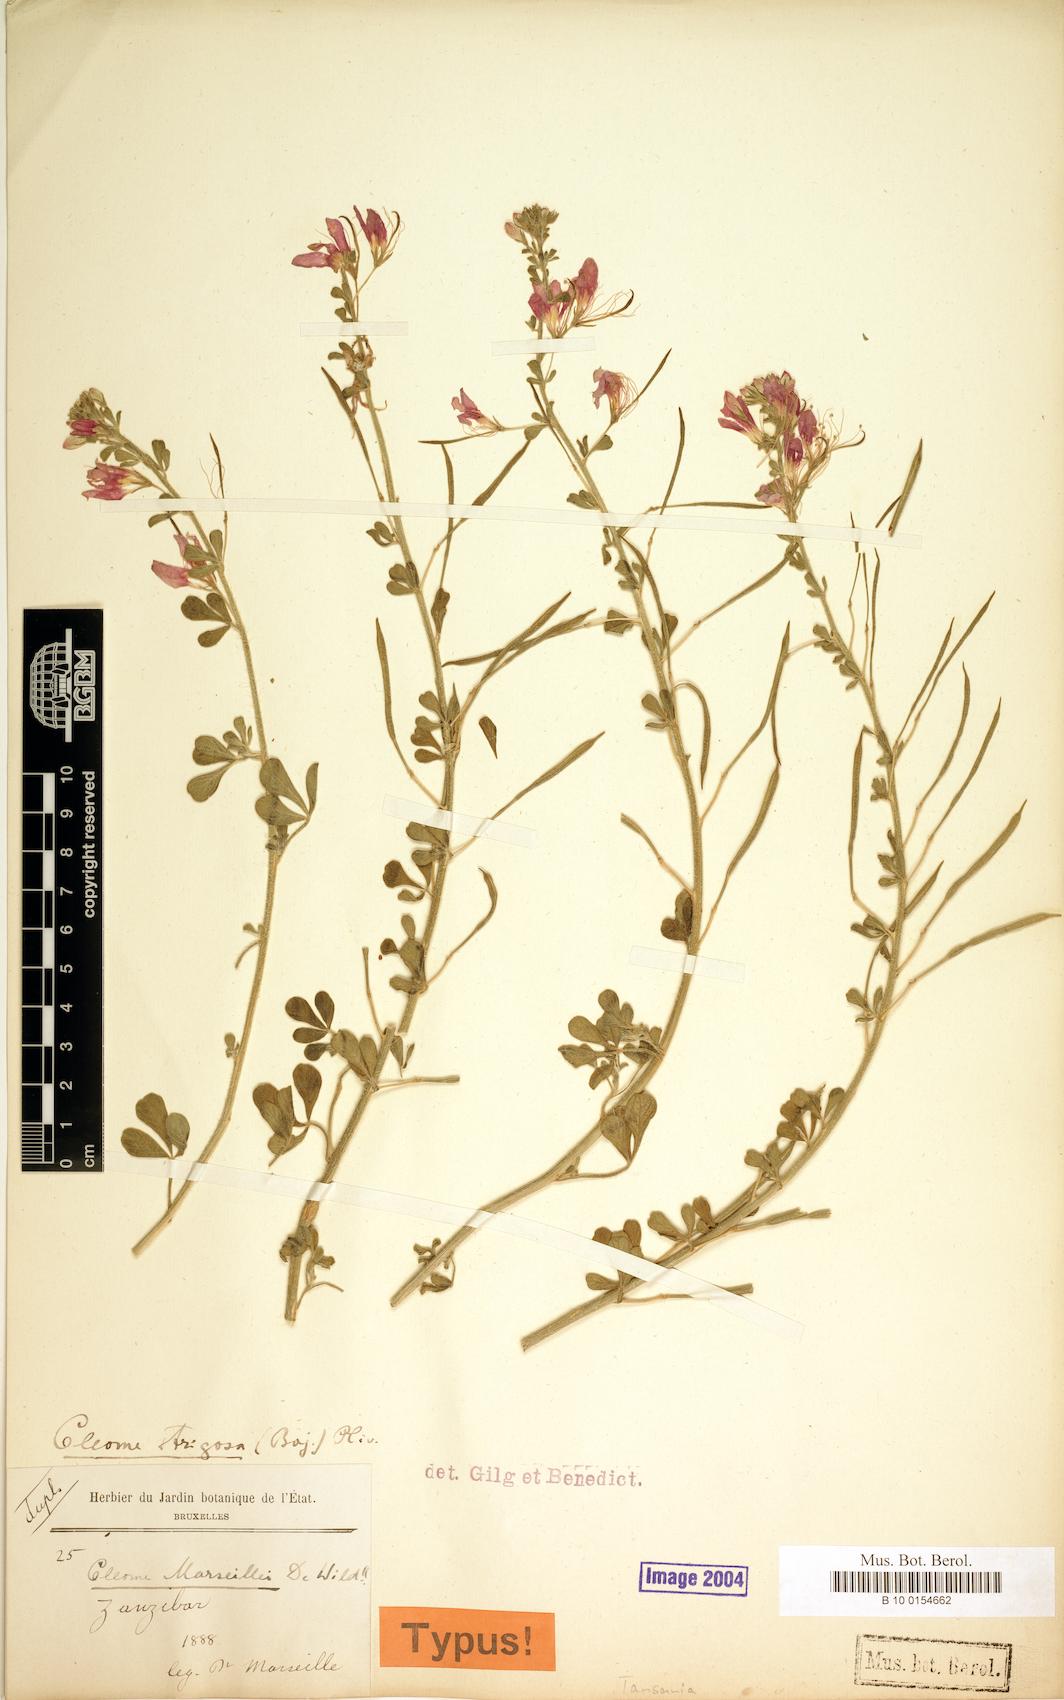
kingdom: Plantae
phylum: Tracheophyta
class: Magnoliopsida
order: Brassicales
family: Cleomaceae
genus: Sieruela
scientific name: Sieruela strigosa
